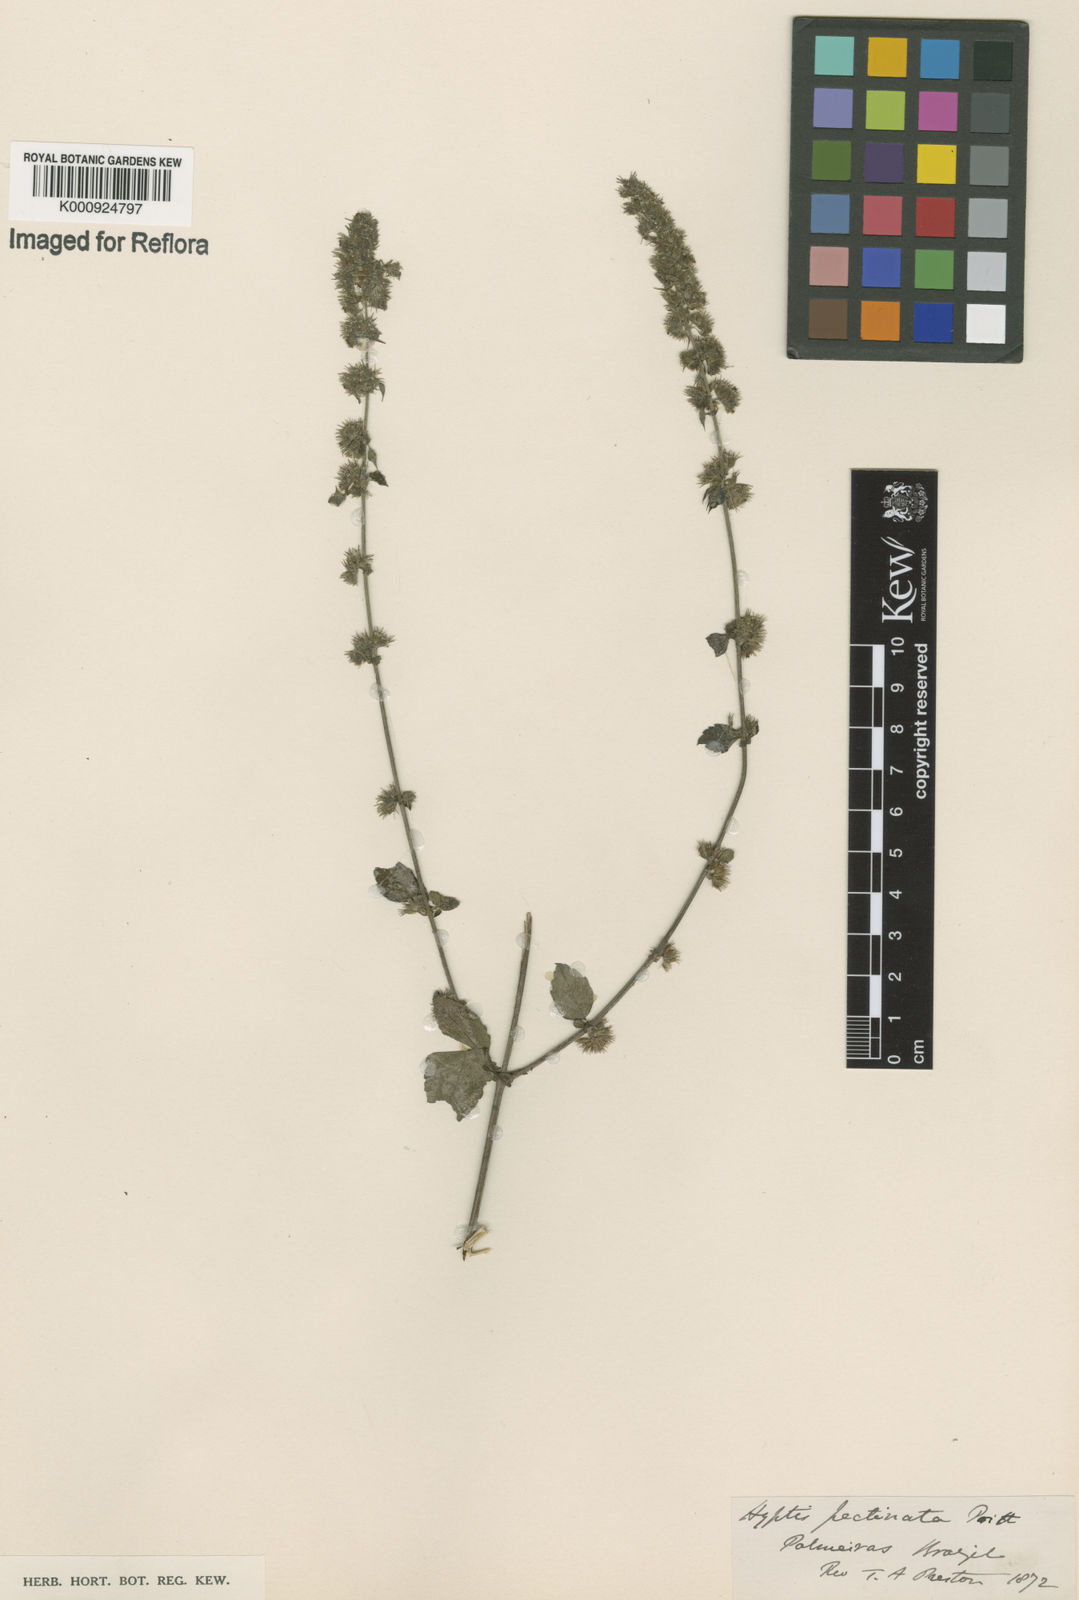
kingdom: Plantae
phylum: Tracheophyta
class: Magnoliopsida
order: Lamiales
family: Lamiaceae
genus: Mesosphaerum
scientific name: Mesosphaerum pectinatum
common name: Comb hyptis
